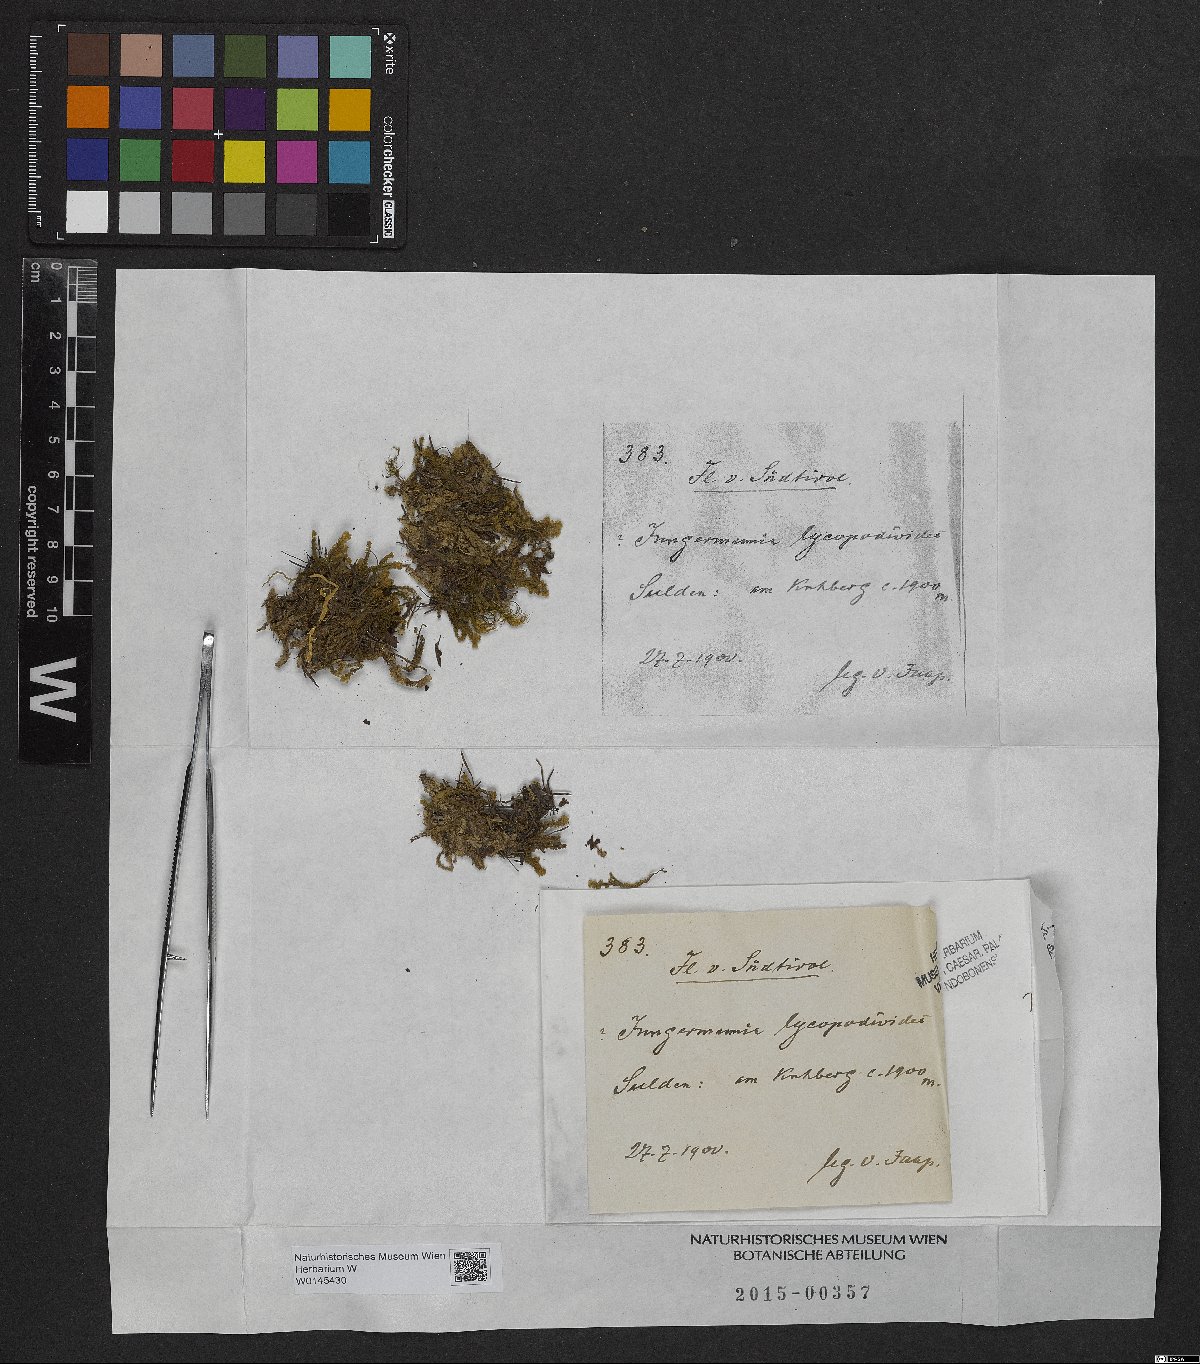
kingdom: Plantae
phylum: Marchantiophyta
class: Jungermanniopsida
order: Jungermanniales
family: Anastrophyllaceae
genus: Barbilophozia
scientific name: Barbilophozia lycopodioides
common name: Greater pawwort
